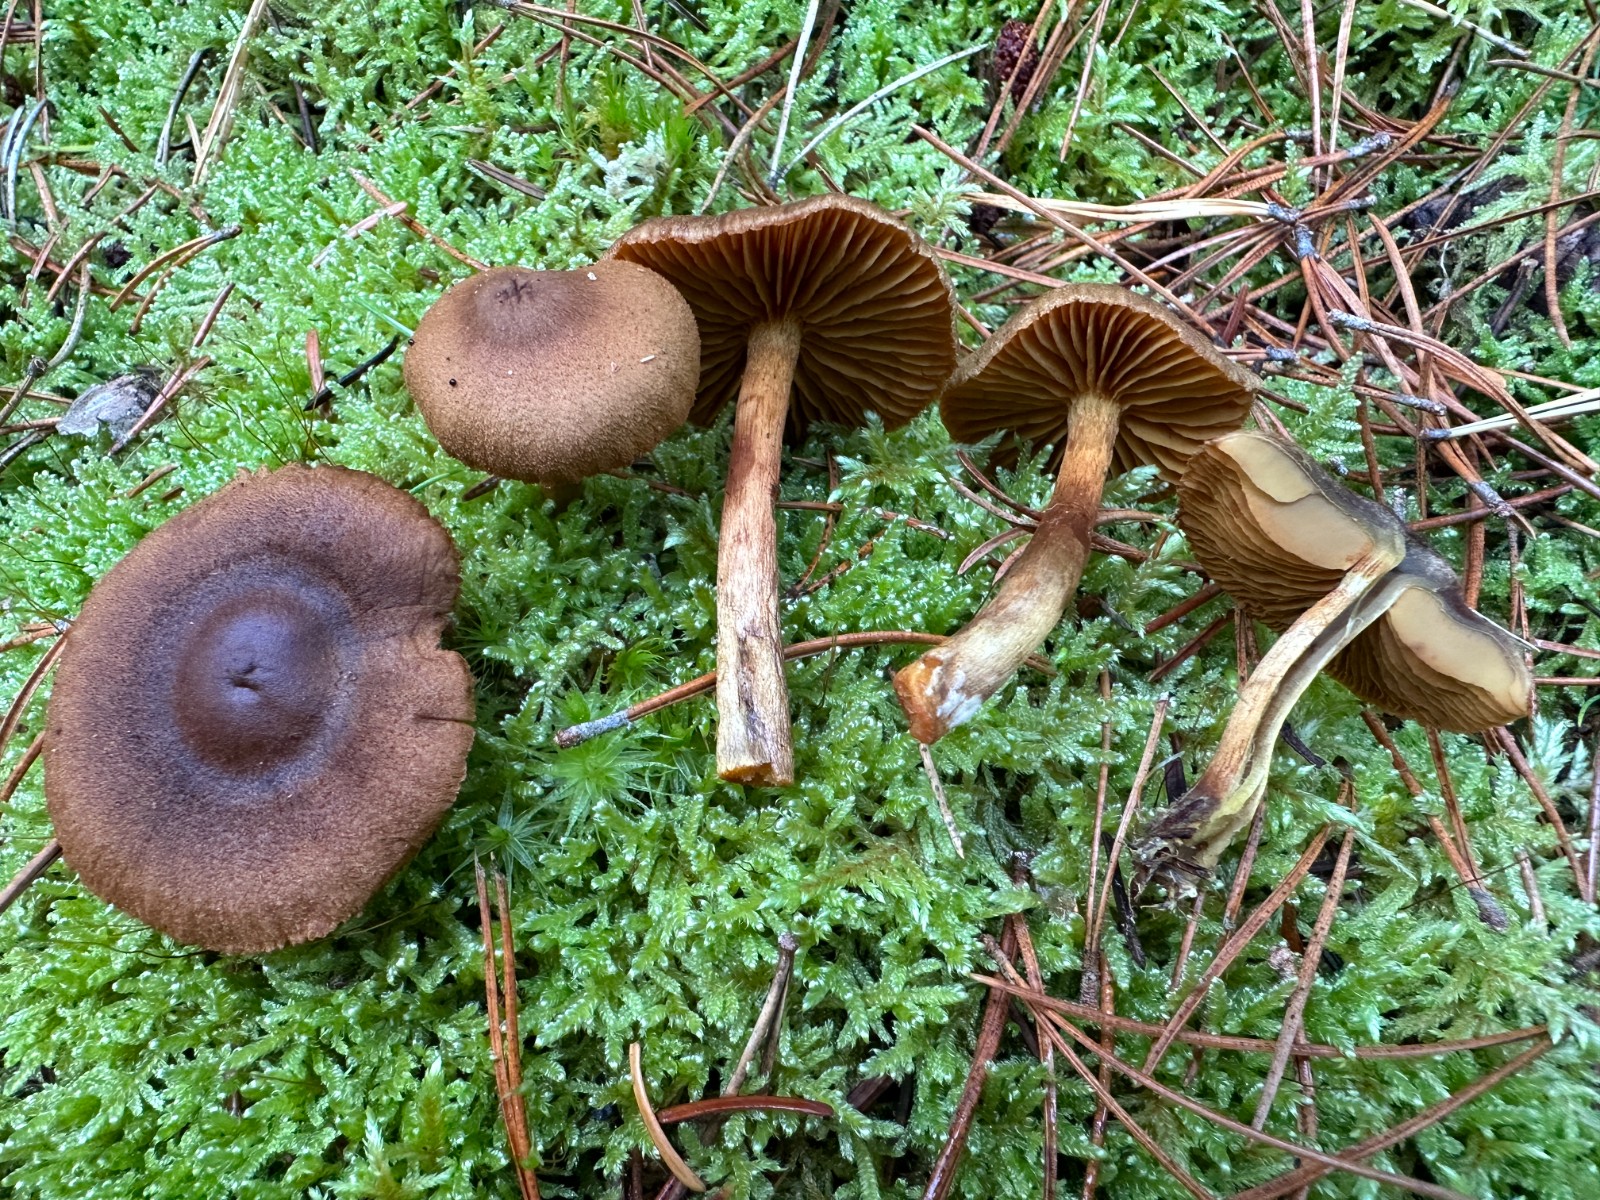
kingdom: Fungi
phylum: Basidiomycota
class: Agaricomycetes
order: Agaricales
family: Cortinariaceae
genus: Cortinarius
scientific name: Cortinarius
